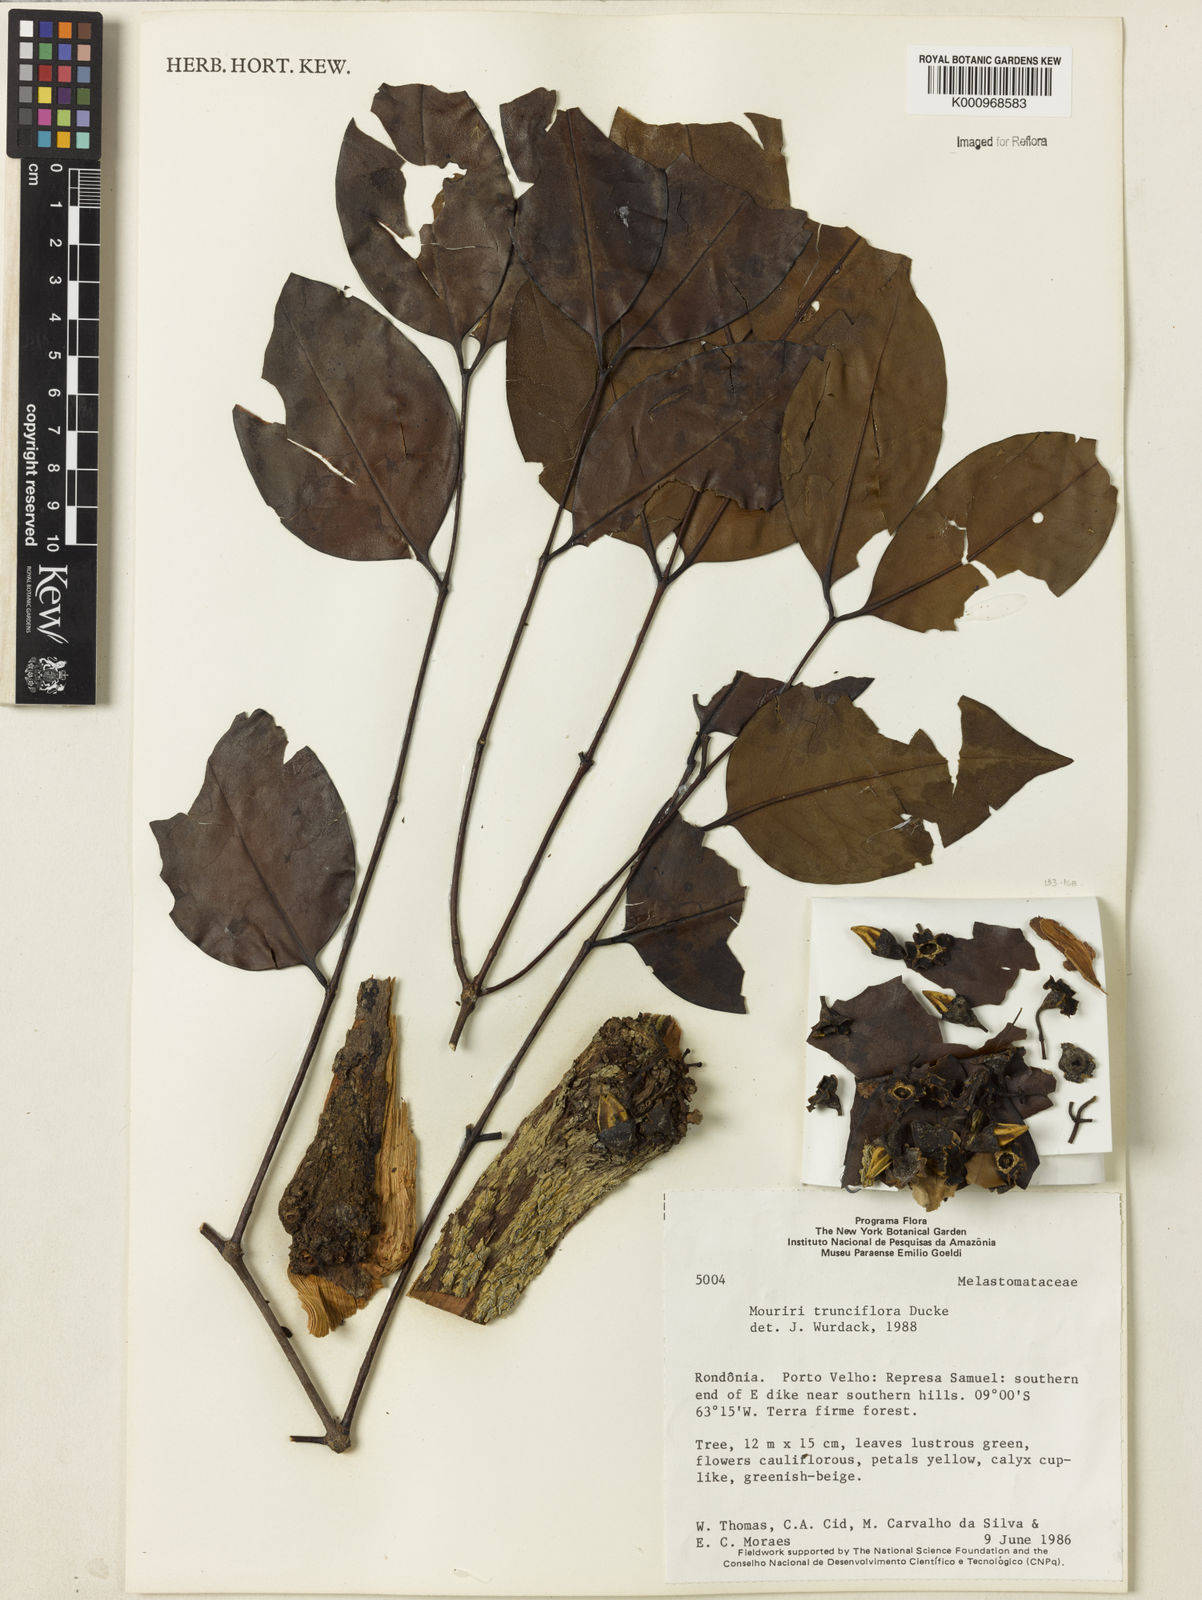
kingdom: Plantae
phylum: Tracheophyta
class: Magnoliopsida
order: Myrtales
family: Melastomataceae
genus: Mouriri
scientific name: Mouriri trunciflora
